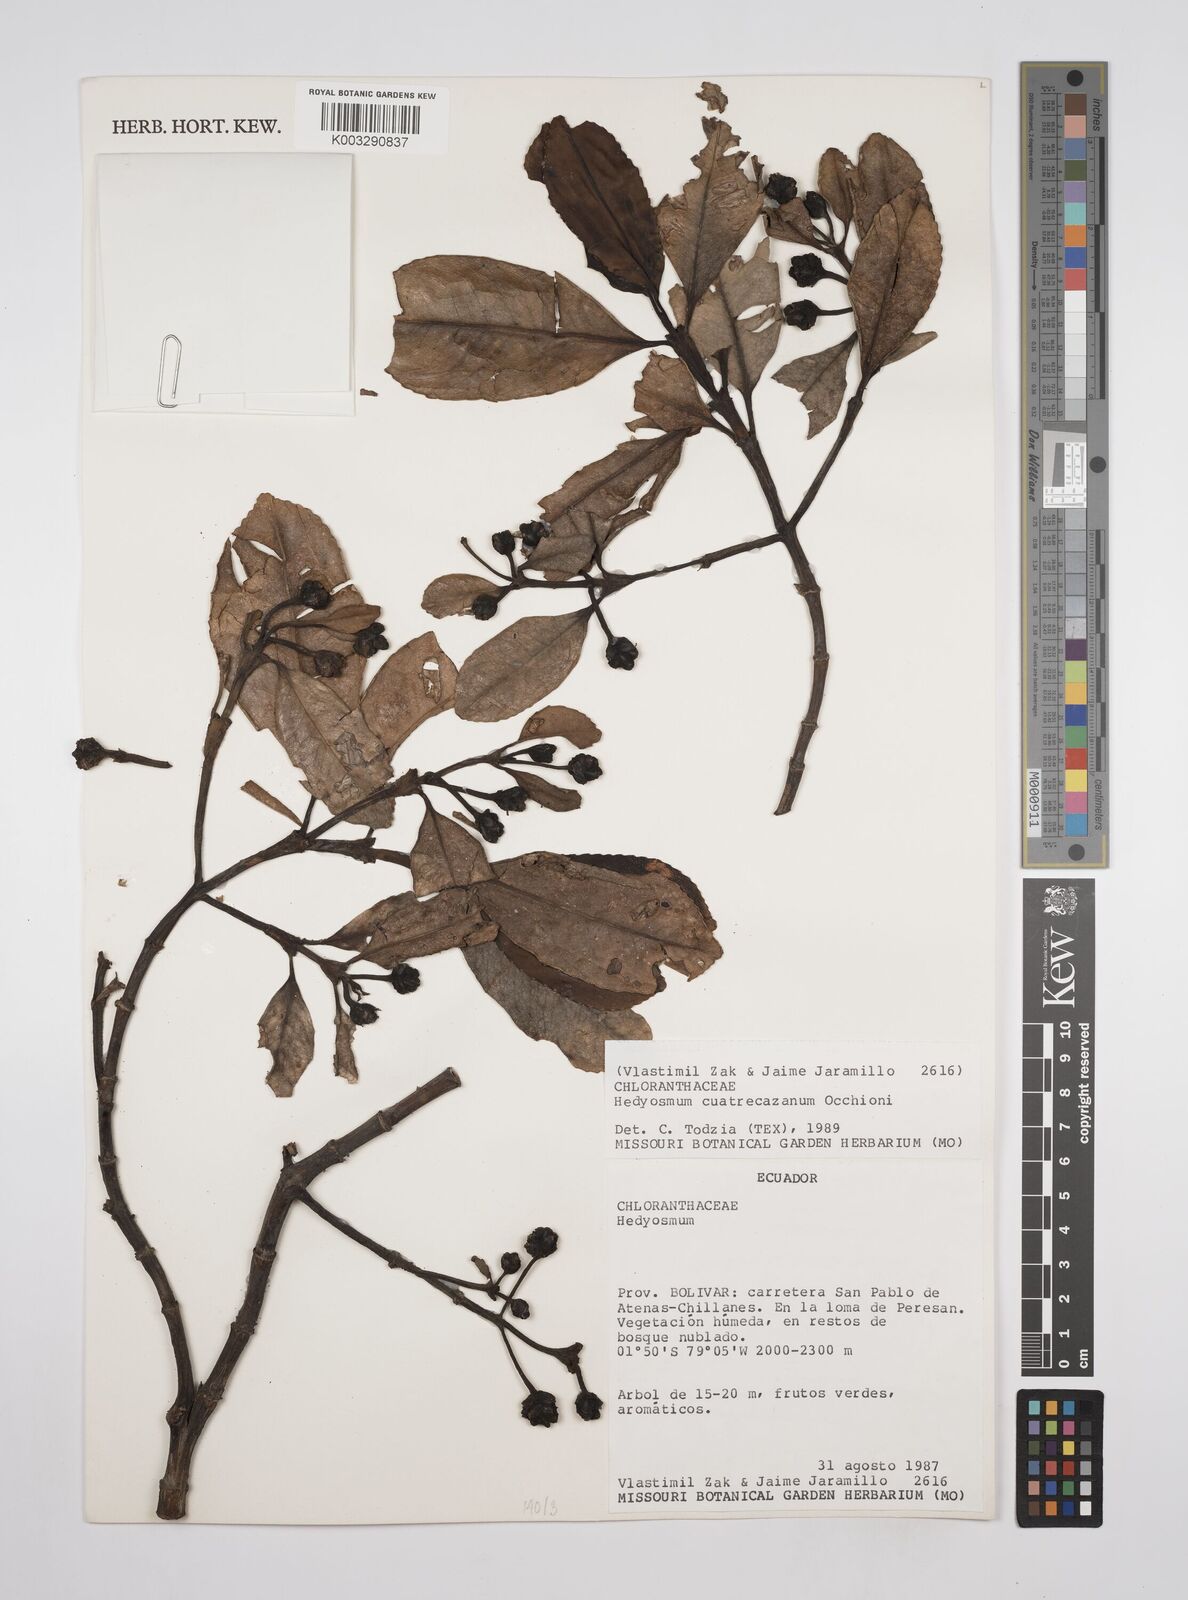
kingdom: Plantae
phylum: Tracheophyta
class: Magnoliopsida
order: Chloranthales
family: Chloranthaceae
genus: Hedyosmum
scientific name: Hedyosmum cuatrecazanum
